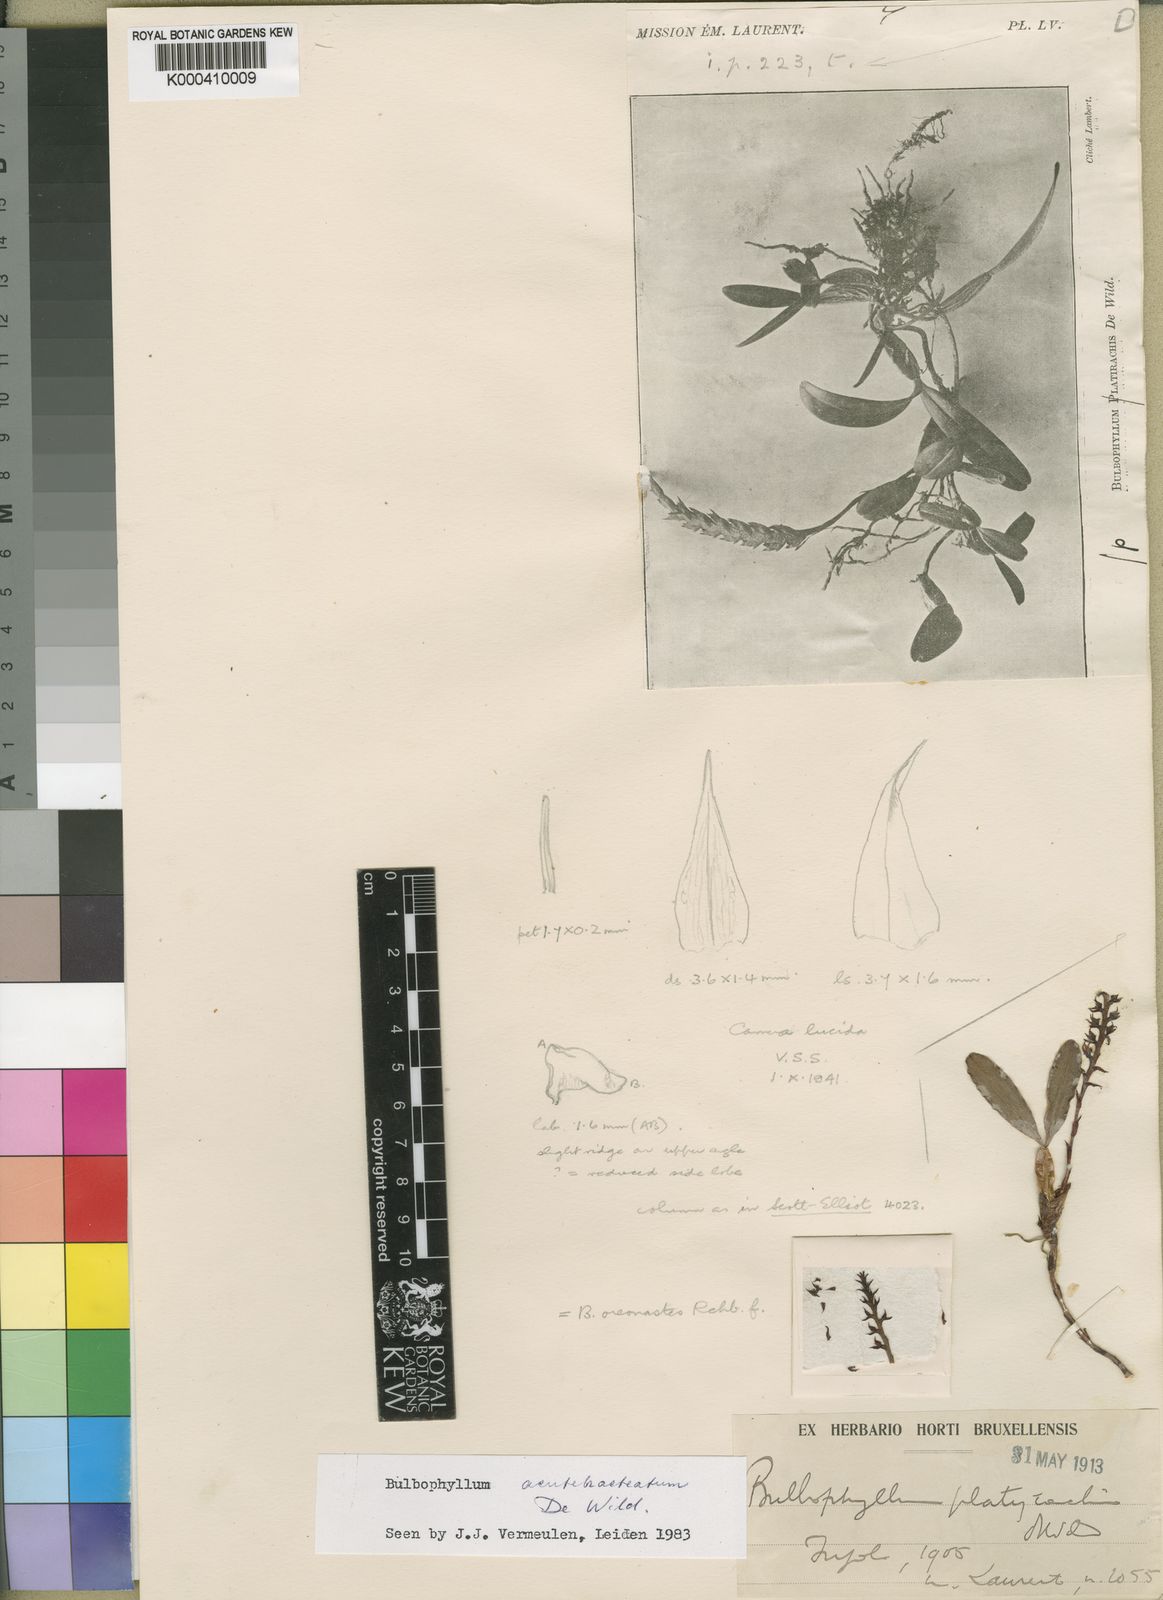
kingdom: Plantae
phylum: Tracheophyta
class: Liliopsida
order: Asparagales
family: Orchidaceae
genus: Bulbophyllum
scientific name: Bulbophyllum acutebracteatum
